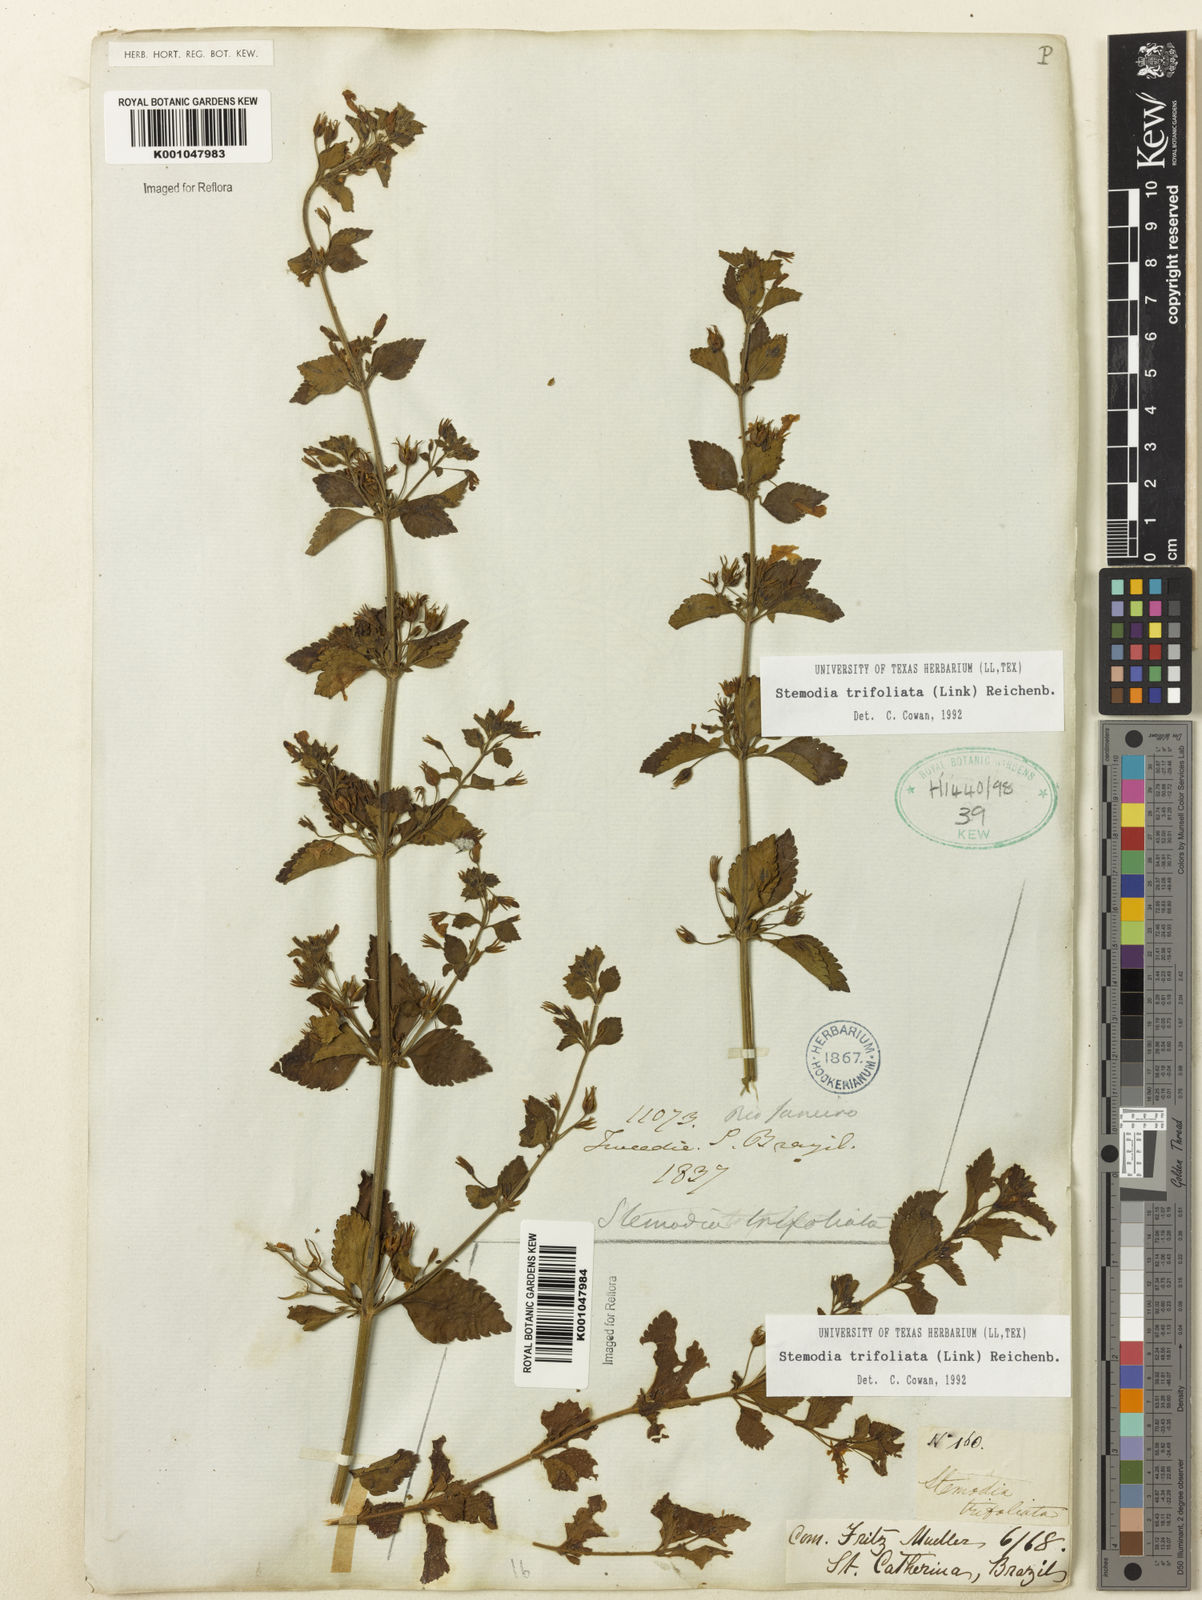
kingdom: Plantae
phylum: Tracheophyta
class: Magnoliopsida
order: Lamiales
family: Plantaginaceae
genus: Stemodia
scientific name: Stemodia trifoliata
